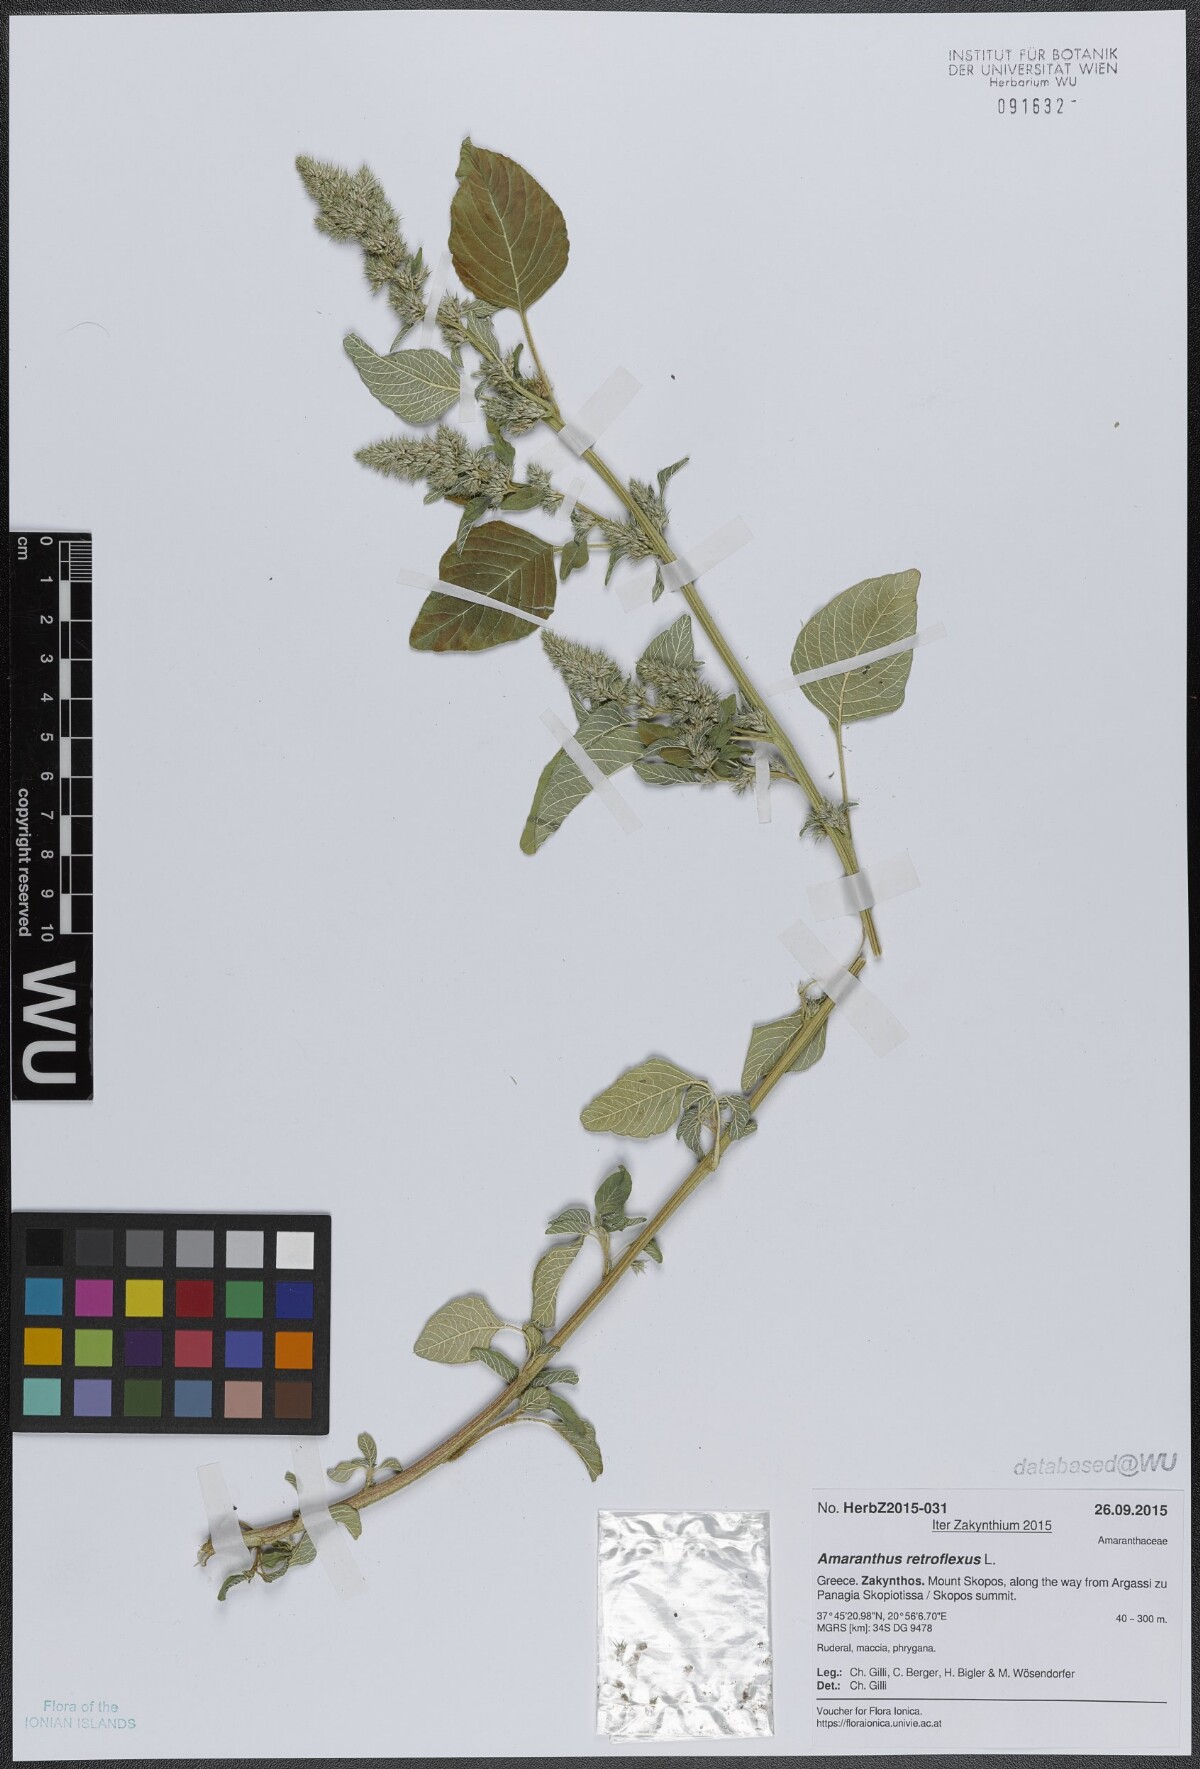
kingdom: Plantae
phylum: Tracheophyta
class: Magnoliopsida
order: Caryophyllales
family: Amaranthaceae
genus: Amaranthus
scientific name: Amaranthus retroflexus
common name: Redroot amaranth
